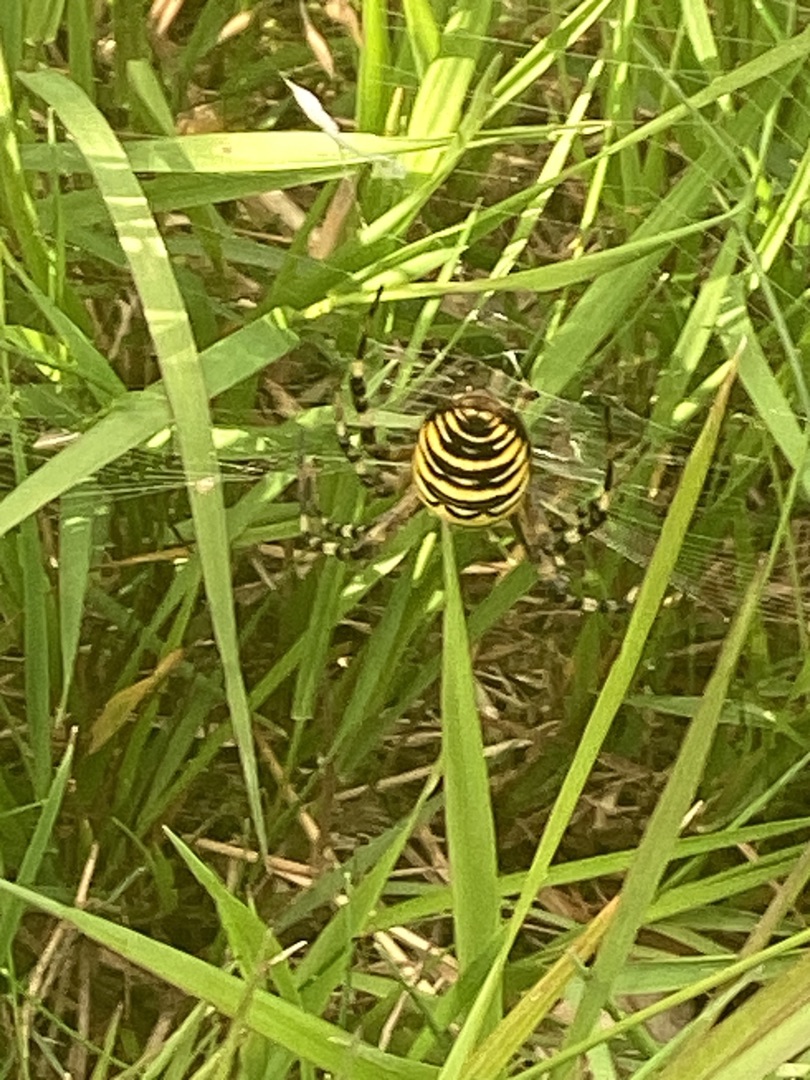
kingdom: Animalia
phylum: Arthropoda
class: Arachnida
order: Araneae
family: Araneidae
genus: Argiope
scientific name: Argiope bruennichi
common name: Hvepseedderkop
